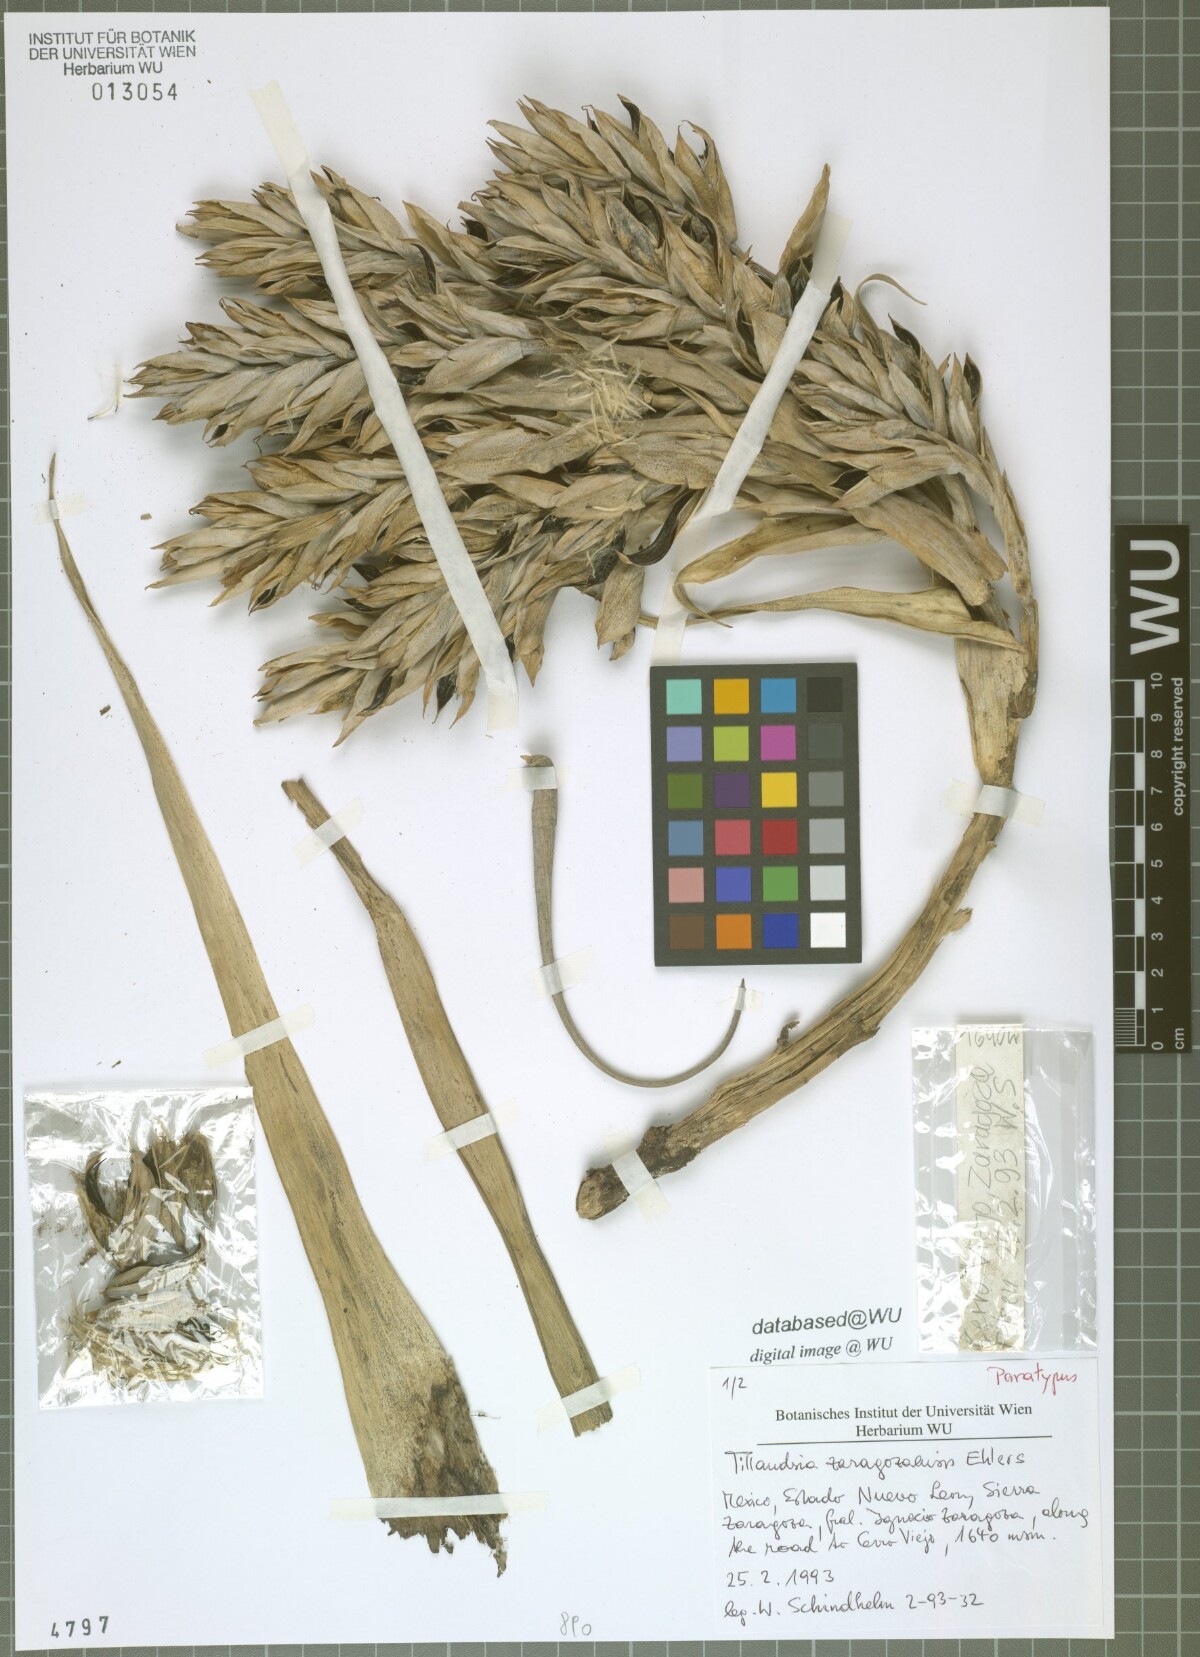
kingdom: Plantae
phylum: Tracheophyta
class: Liliopsida
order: Poales
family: Bromeliaceae
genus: Tillandsia
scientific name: Tillandsia zaragozaensis
